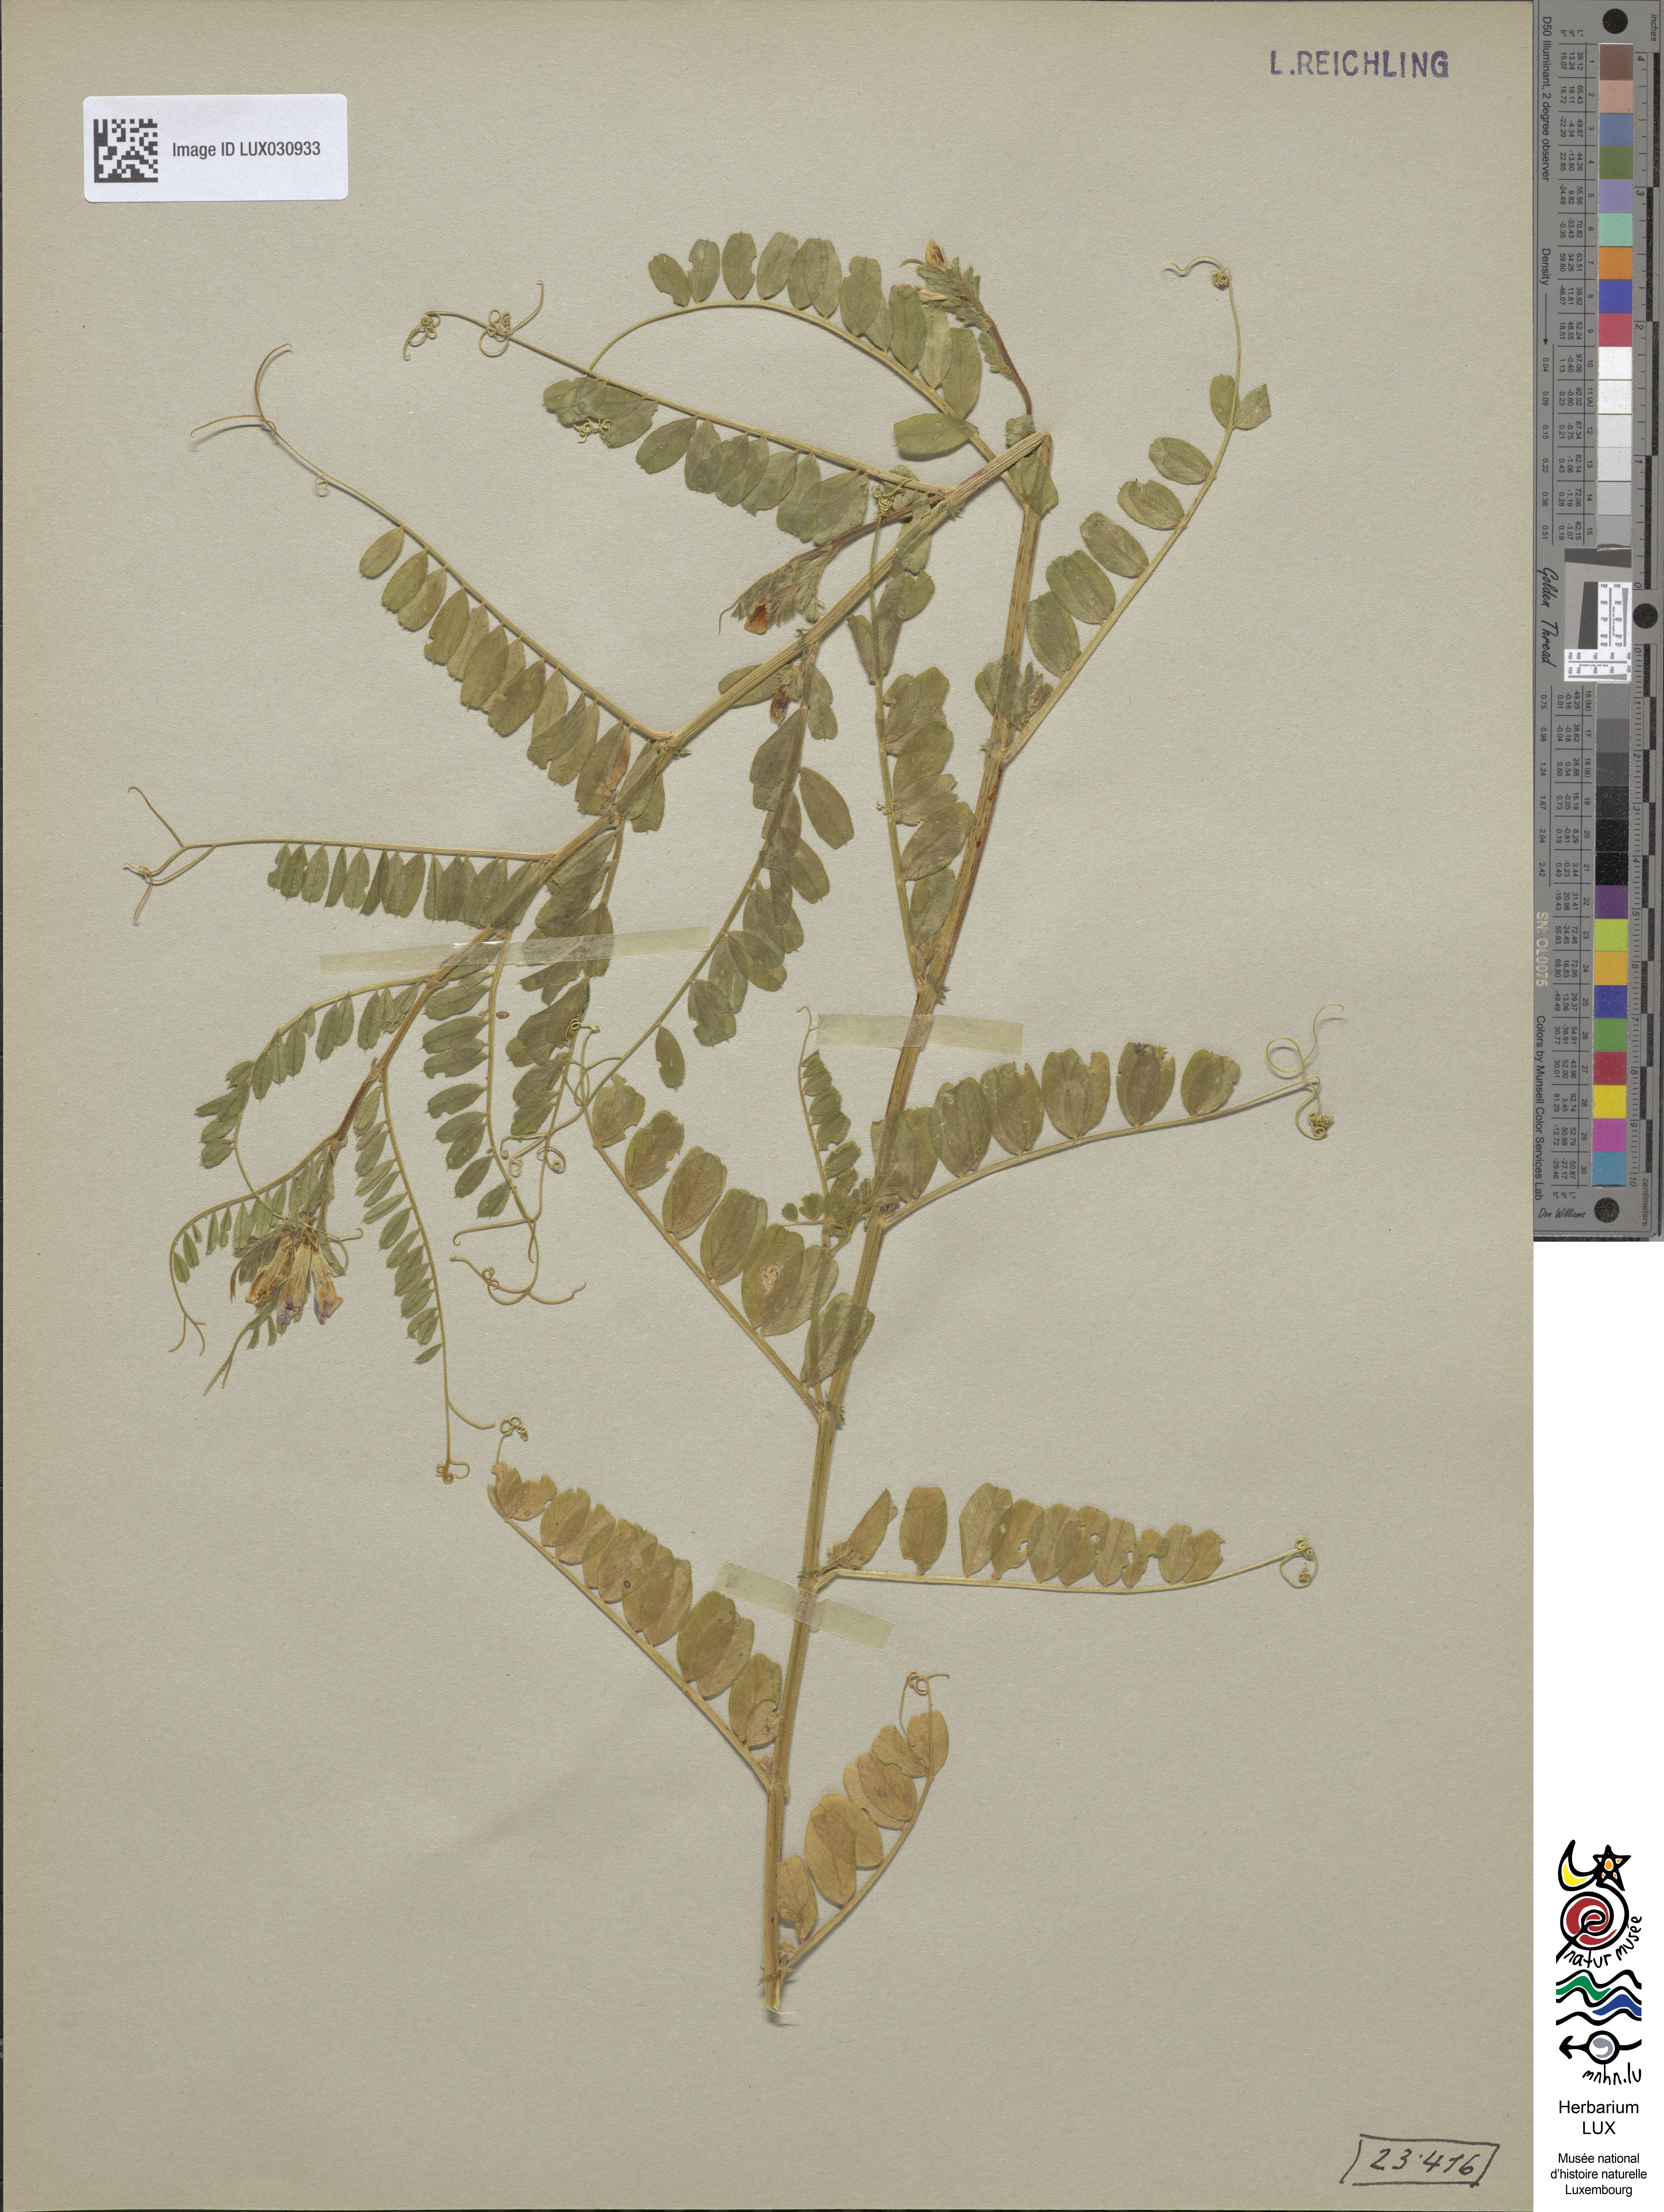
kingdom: Plantae
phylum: Tracheophyta
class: Magnoliopsida
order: Fabales
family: Fabaceae
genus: Vicia
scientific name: Vicia sativa
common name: Garden vetch
